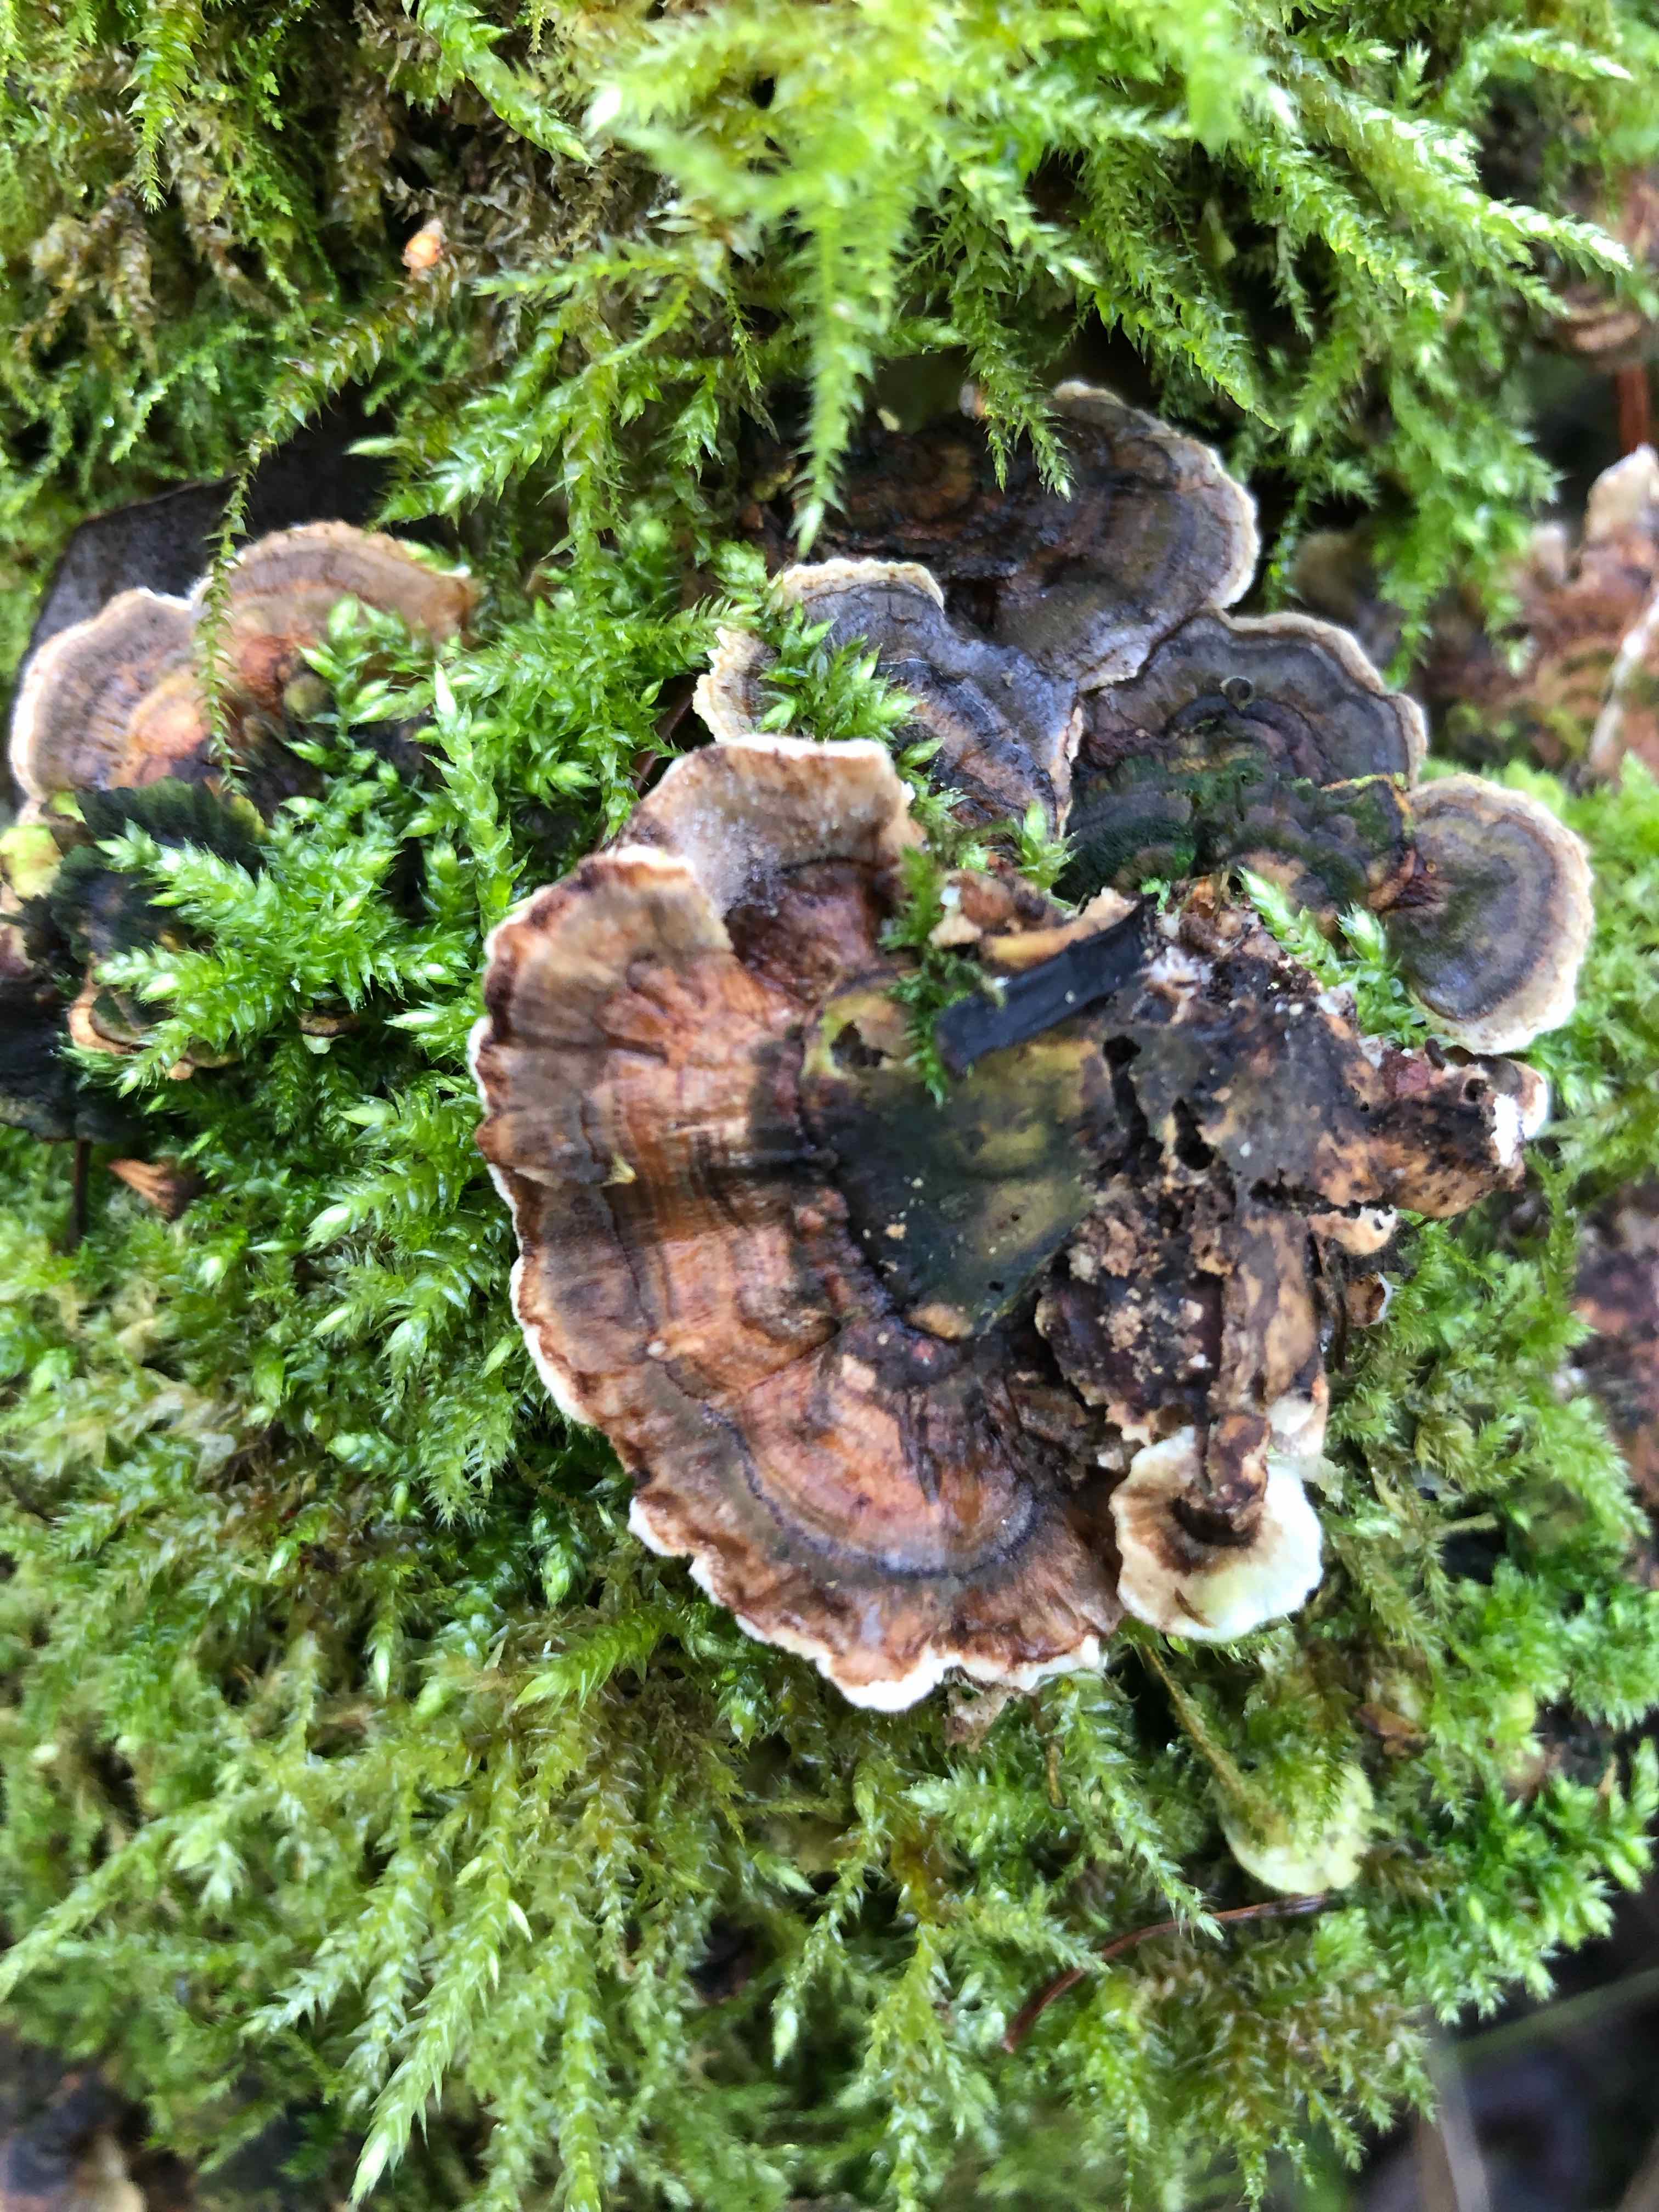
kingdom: Fungi
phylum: Basidiomycota
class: Agaricomycetes
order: Polyporales
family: Polyporaceae
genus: Trametes
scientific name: Trametes versicolor
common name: broget læderporesvamp
